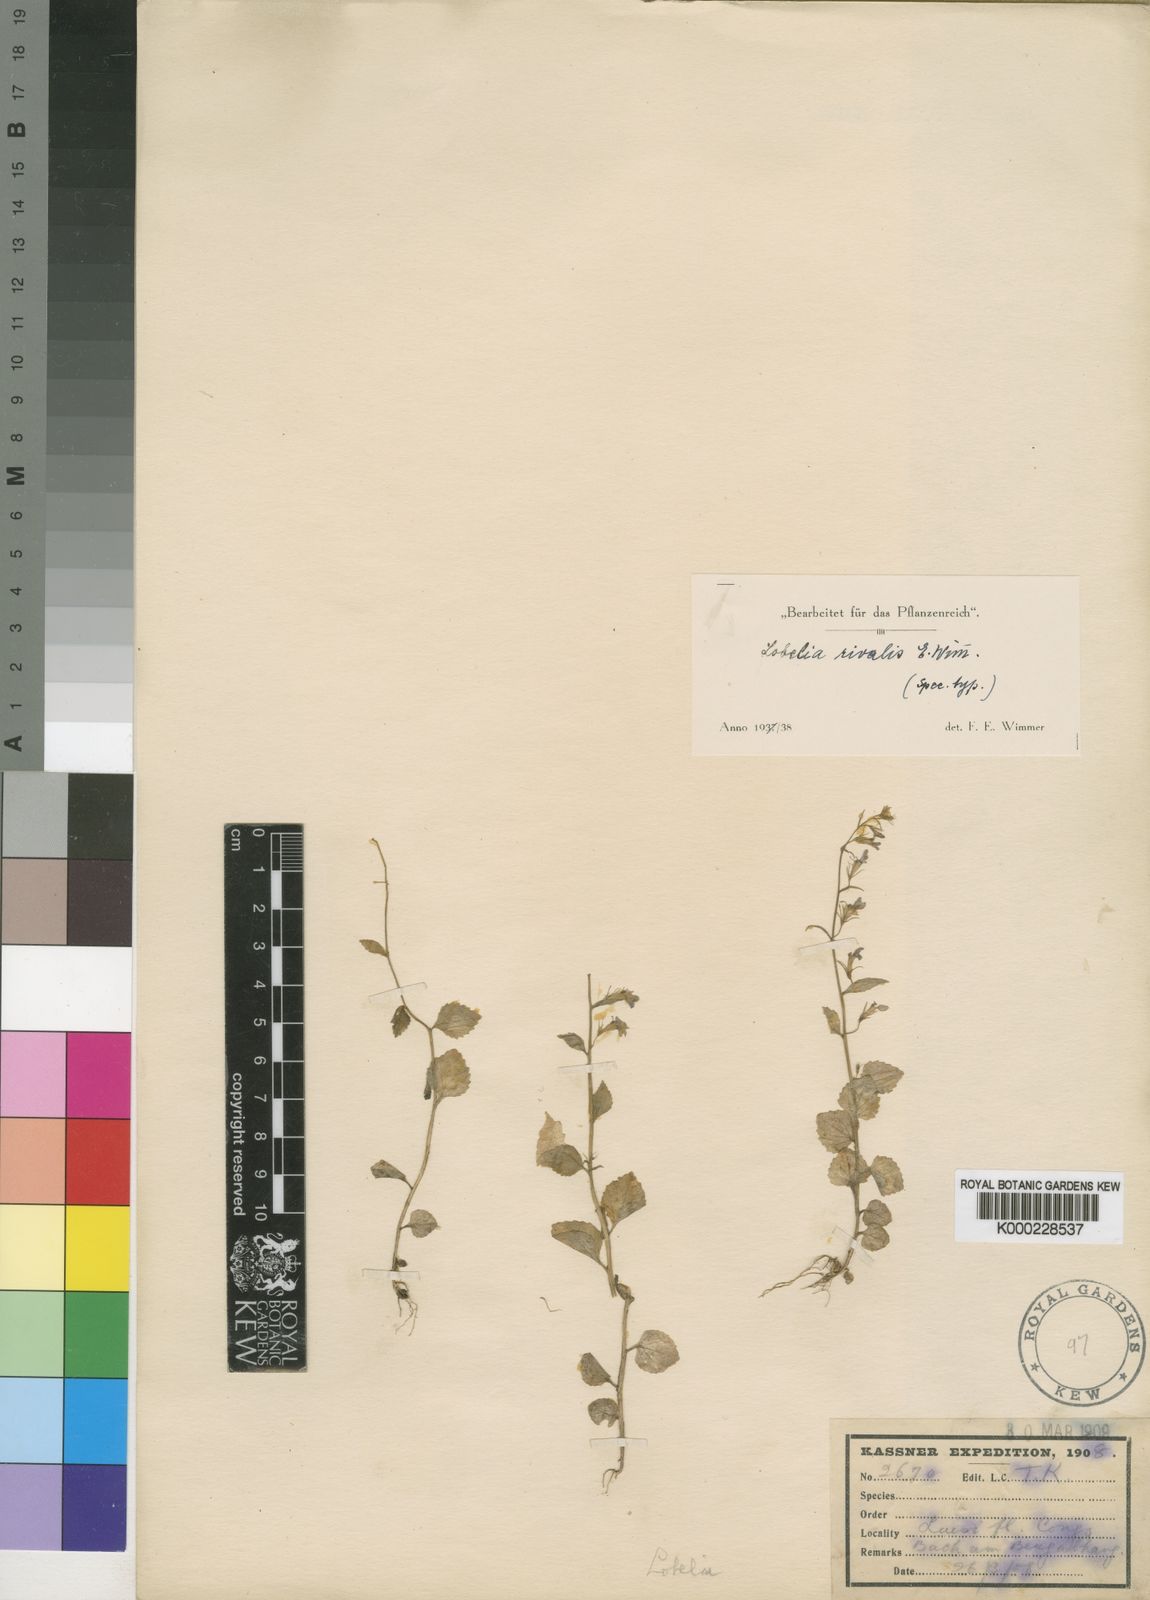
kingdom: Plantae
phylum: Tracheophyta
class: Magnoliopsida
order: Asterales
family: Campanulaceae
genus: Lobelia
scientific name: Lobelia rivalis
